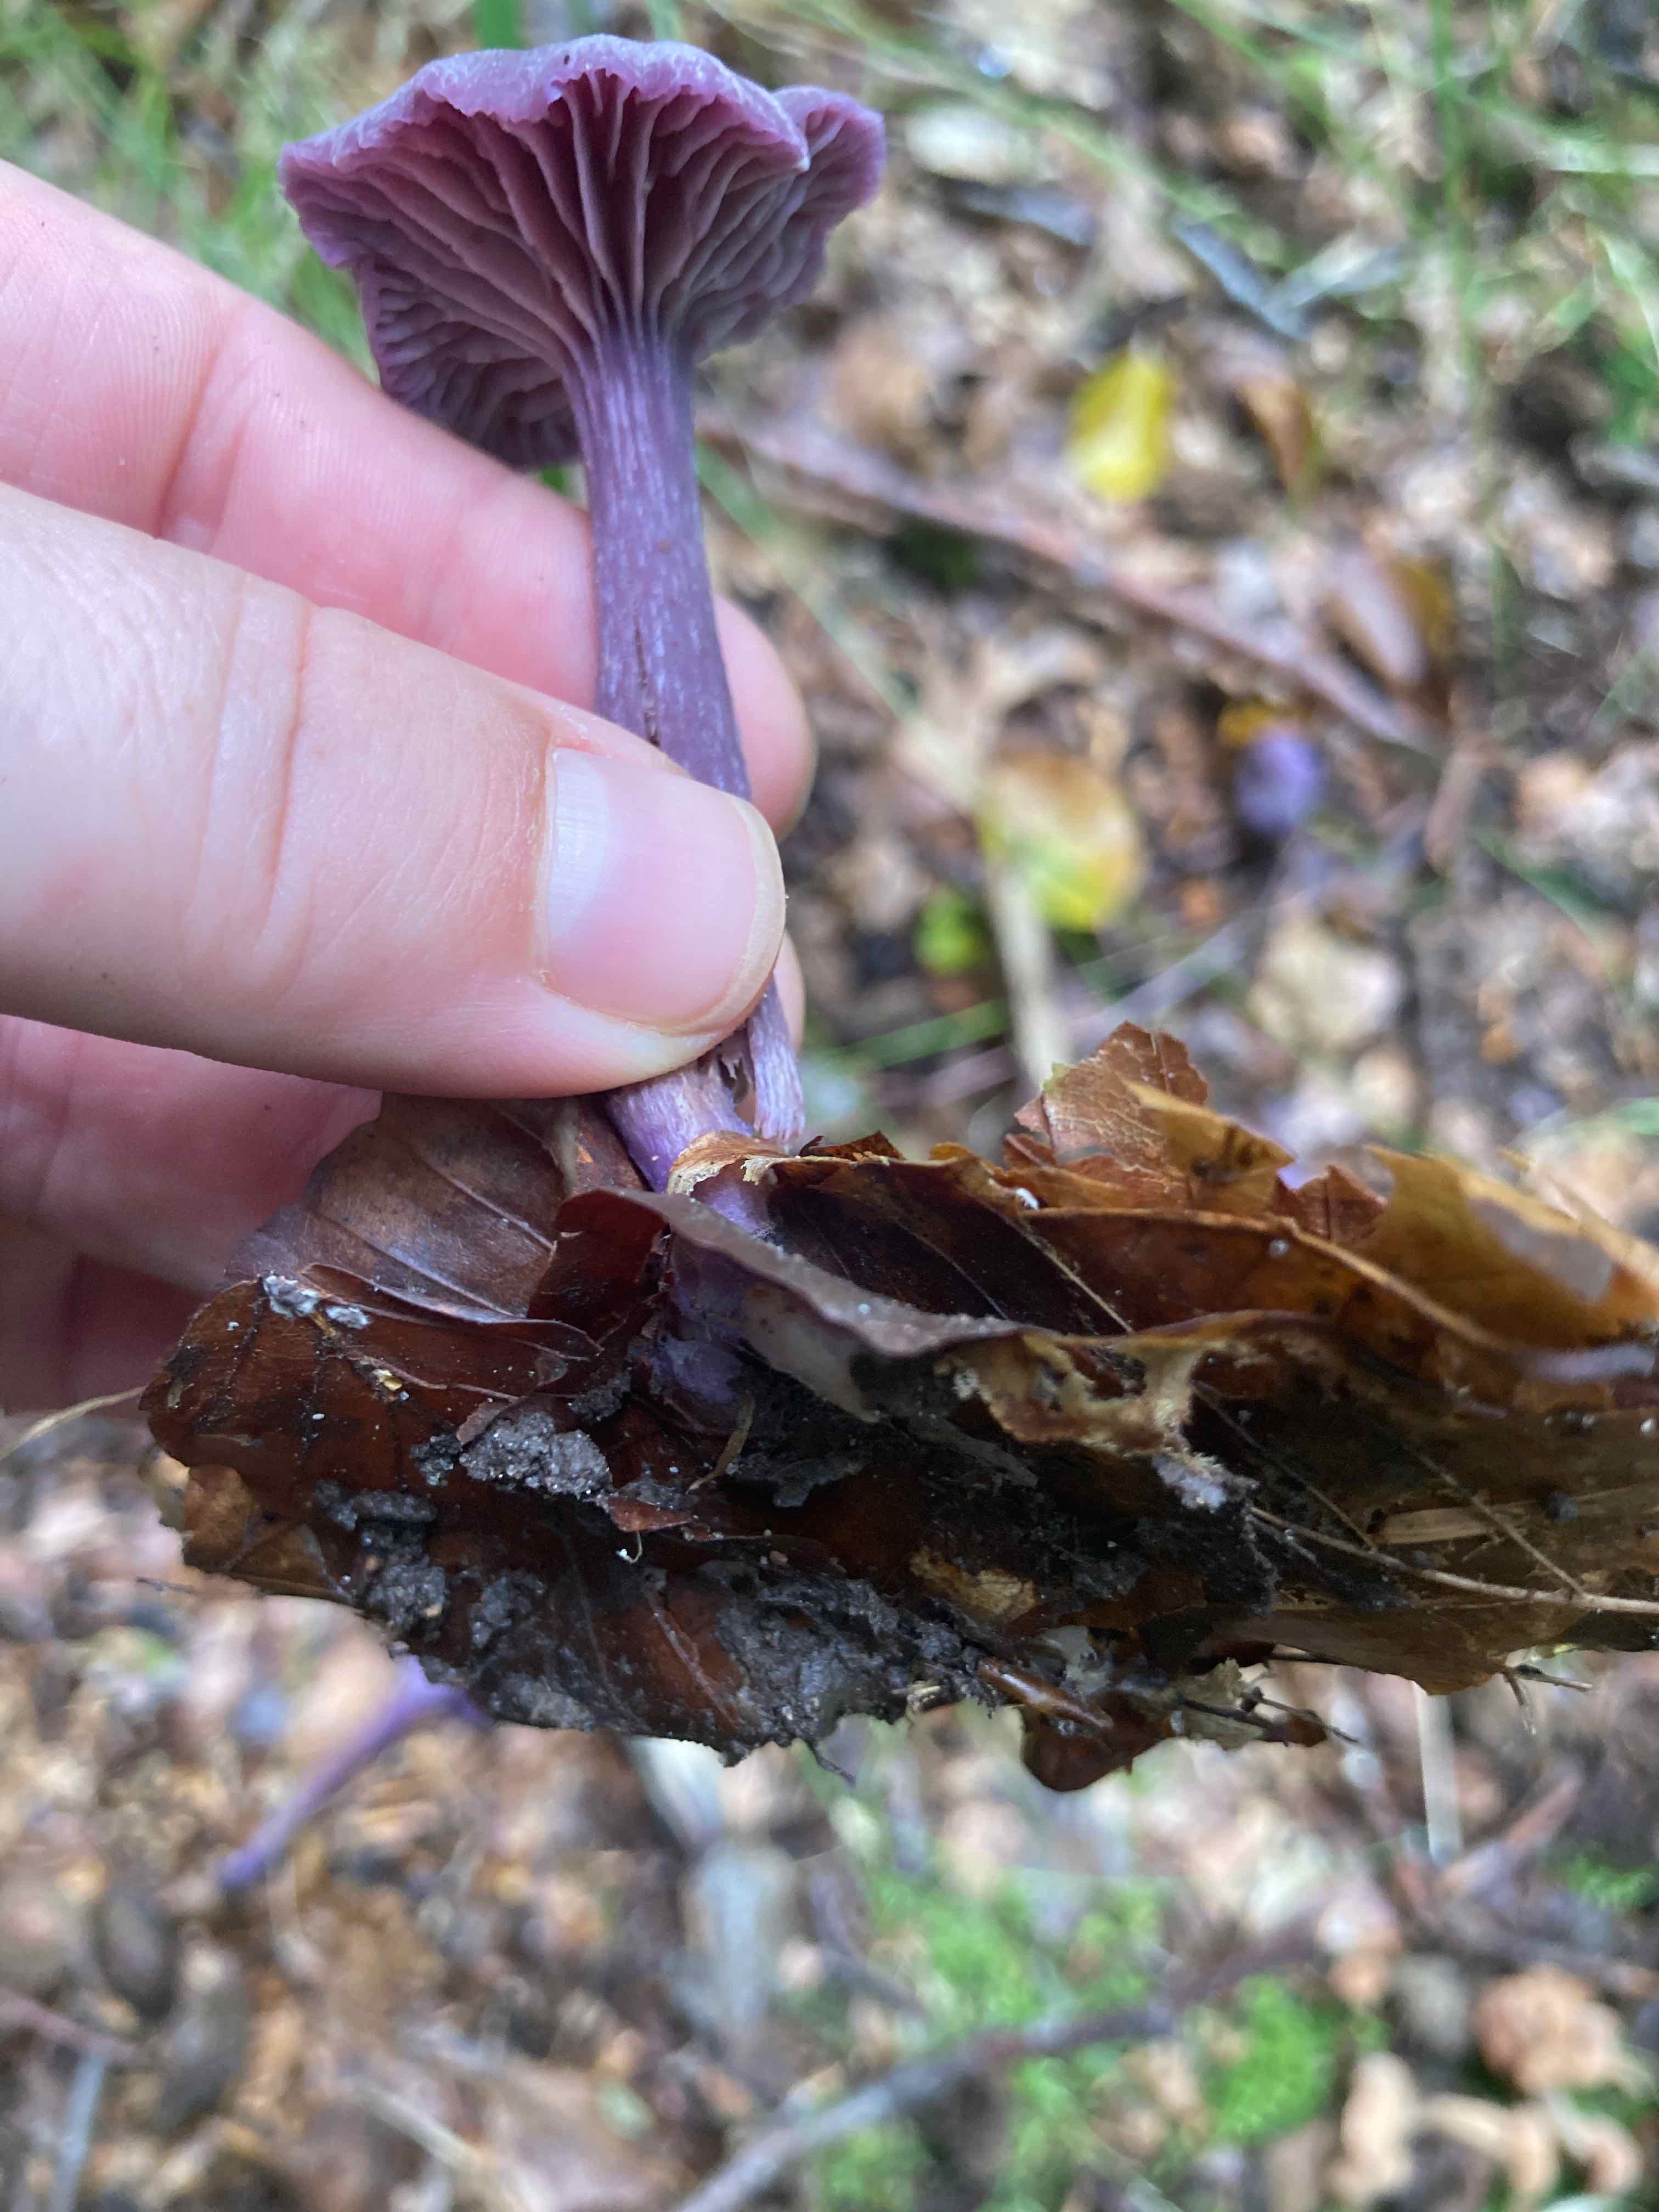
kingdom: Fungi
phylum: Basidiomycota
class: Agaricomycetes
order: Agaricales
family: Hydnangiaceae
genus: Laccaria
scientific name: Laccaria amethystina
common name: violet ametysthat
